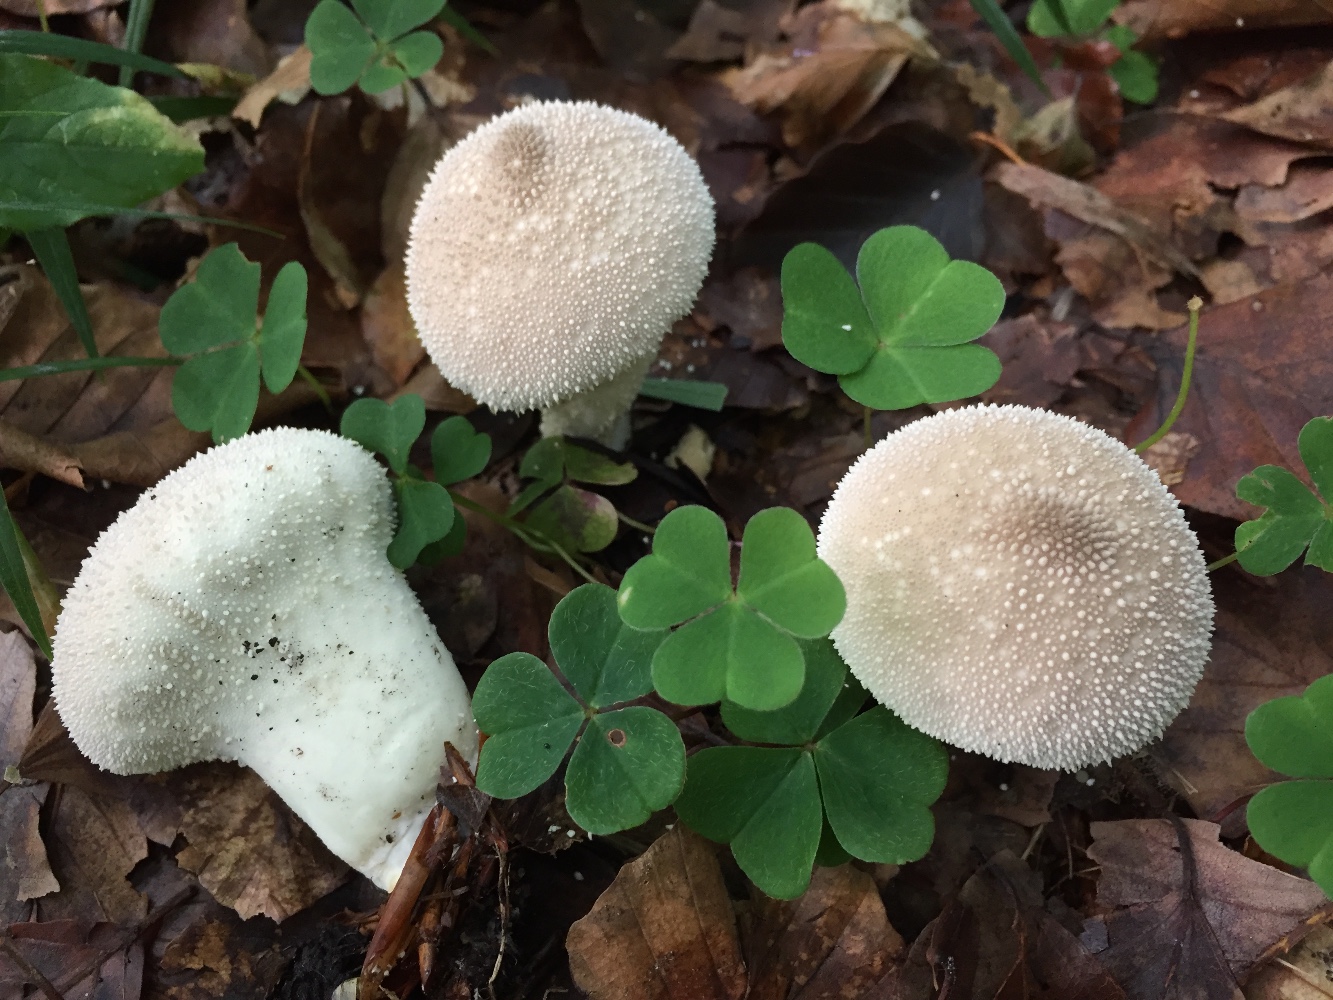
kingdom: Fungi
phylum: Basidiomycota
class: Agaricomycetes
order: Agaricales
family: Lycoperdaceae
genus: Lycoperdon
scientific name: Lycoperdon perlatum
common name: krystal-støvbold
